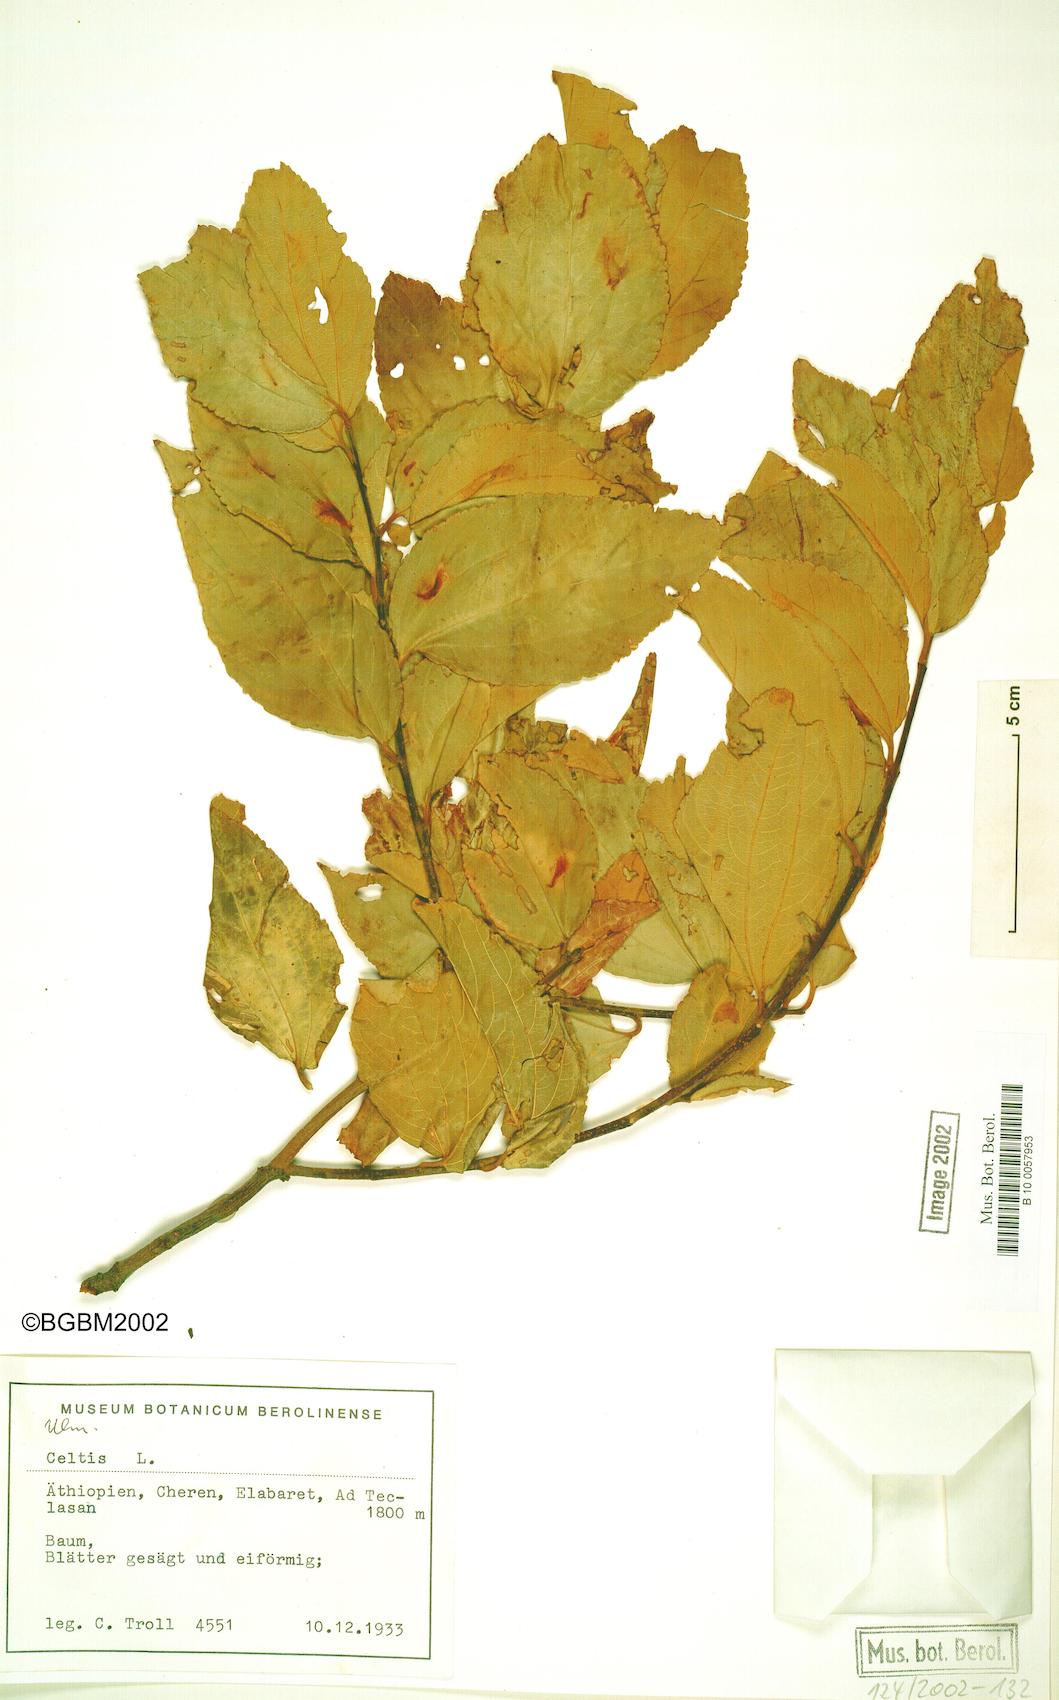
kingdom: Plantae
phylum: Tracheophyta
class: Magnoliopsida
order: Rosales
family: Cannabaceae
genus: Celtis
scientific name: Celtis
